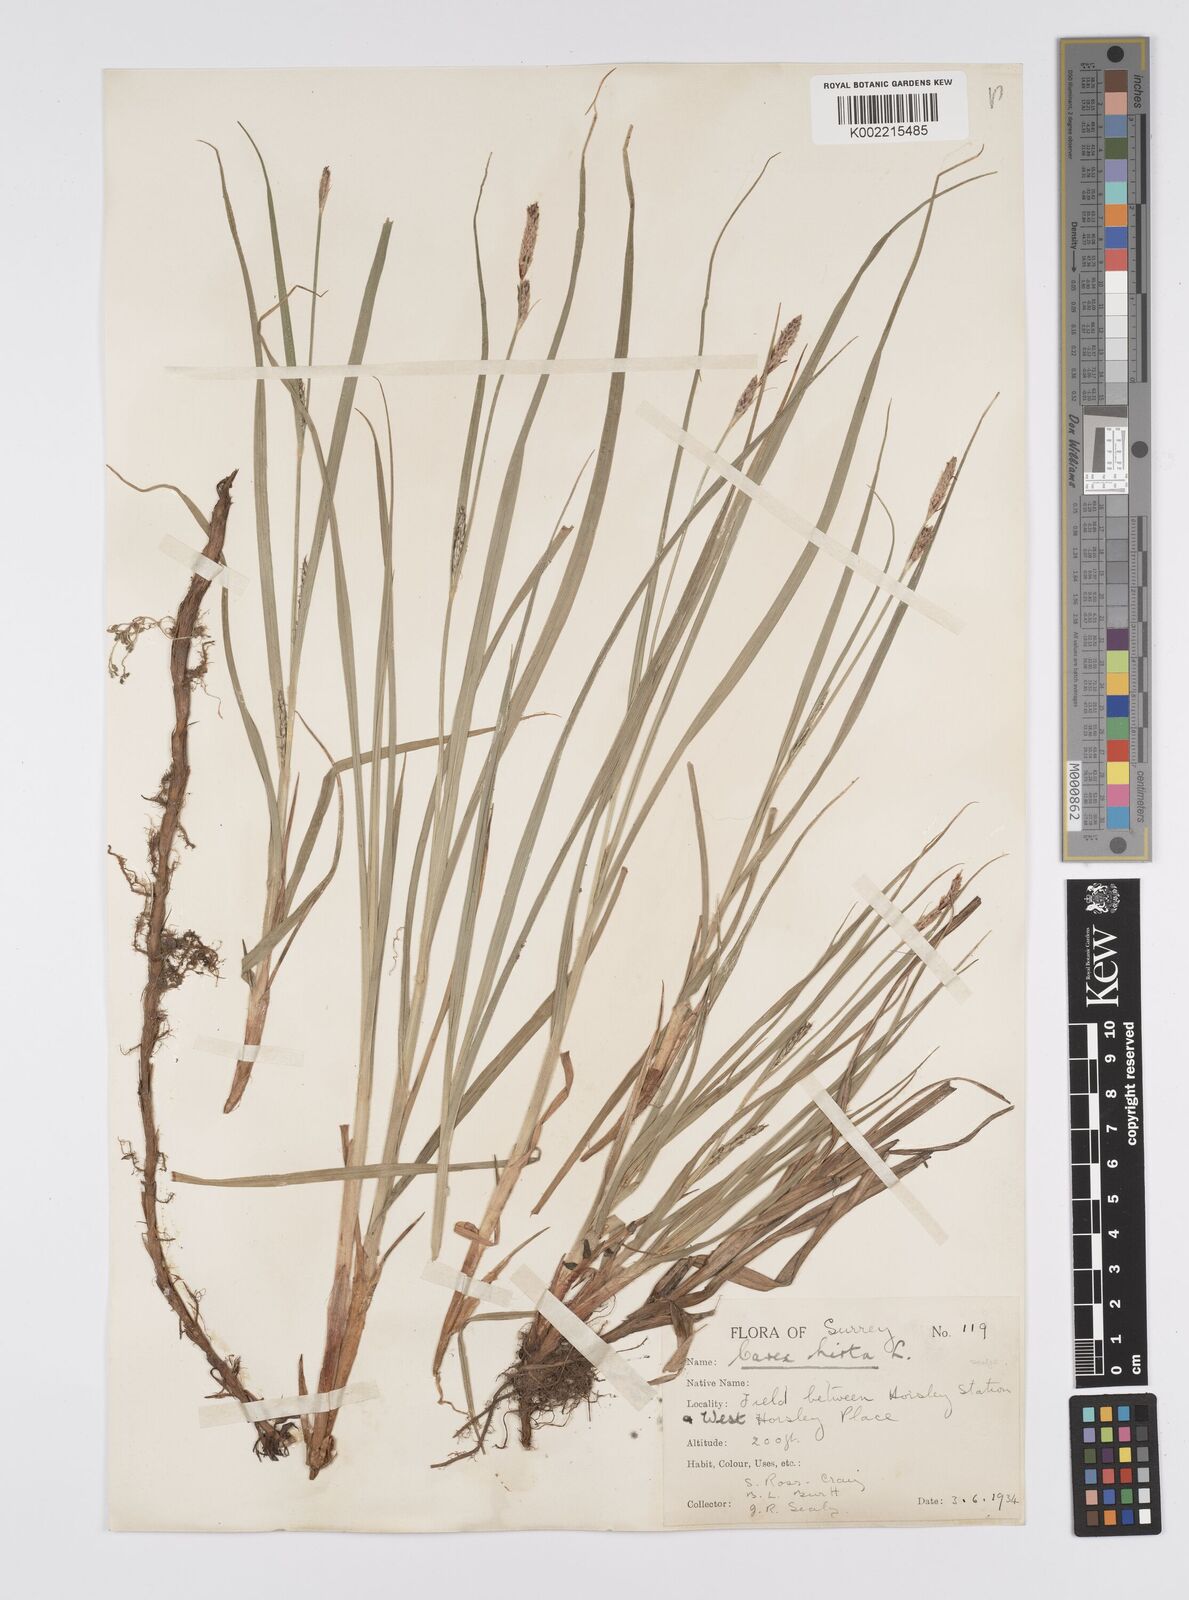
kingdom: Plantae
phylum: Tracheophyta
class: Liliopsida
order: Poales
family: Cyperaceae
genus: Carex
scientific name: Carex hirta
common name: Hairy sedge
